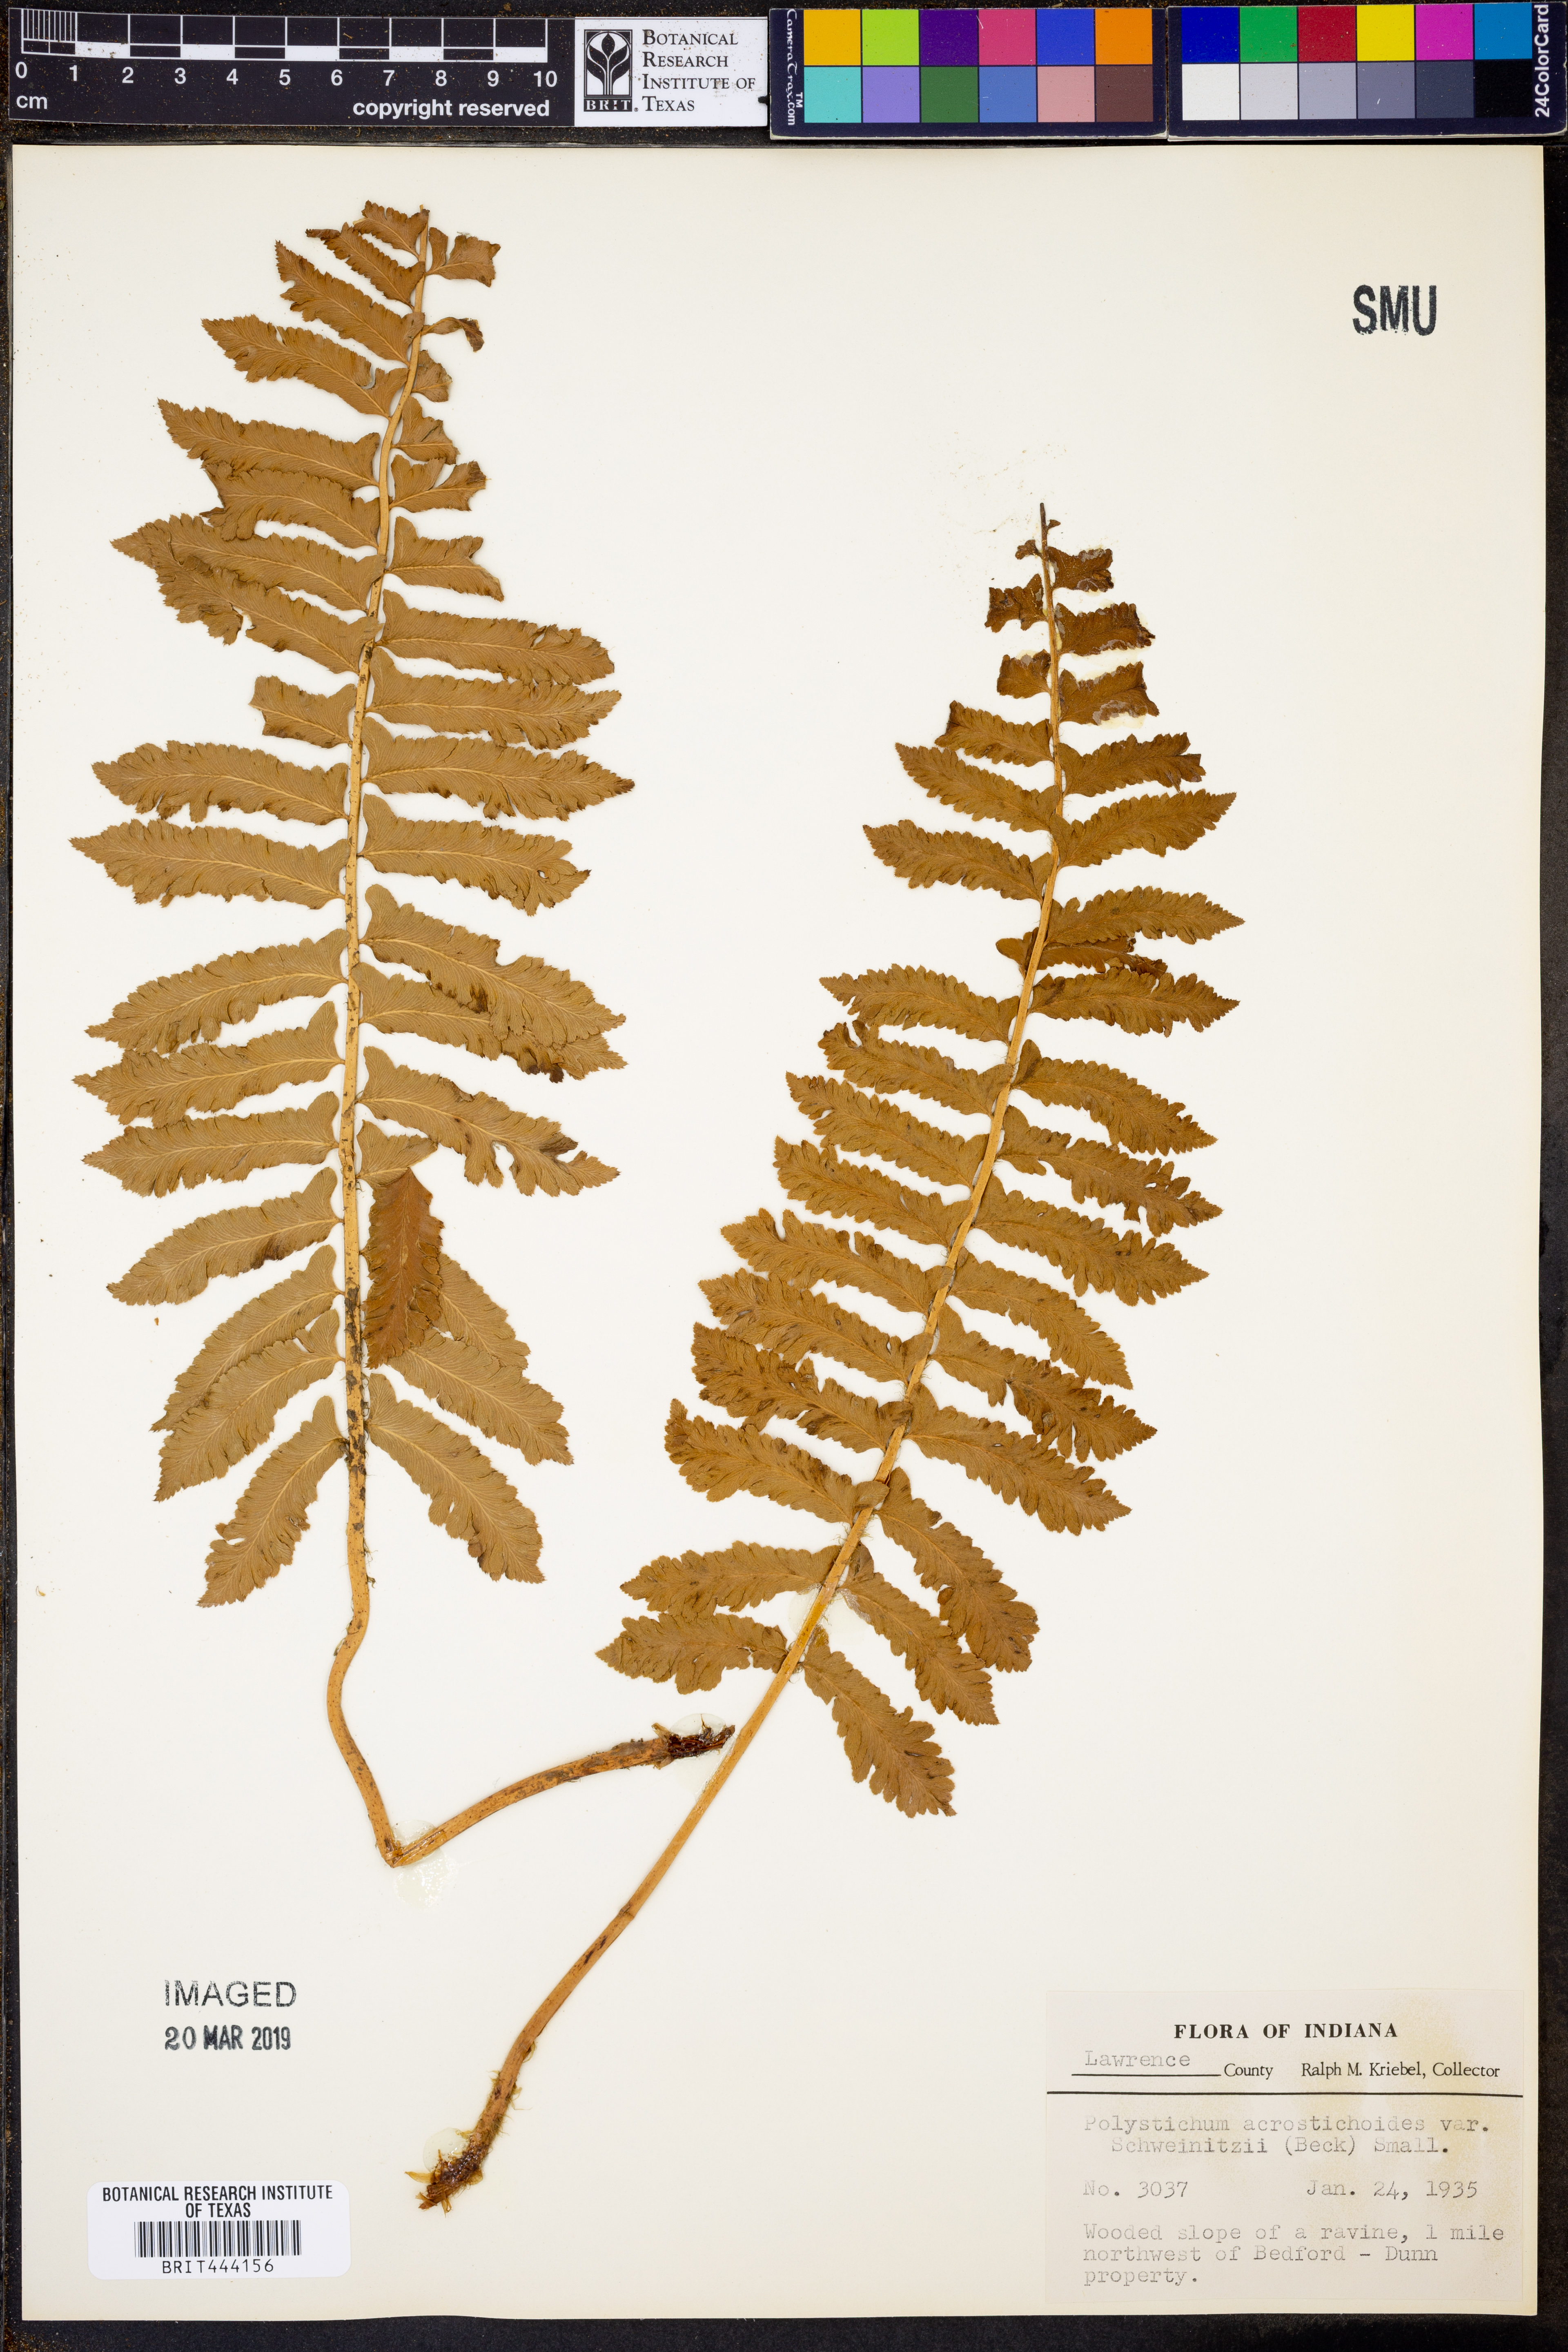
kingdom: Plantae
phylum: Tracheophyta
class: Polypodiopsida
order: Polypodiales
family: Dryopteridaceae
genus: Polystichum
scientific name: Polystichum acrostichoides
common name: Christmas fern
